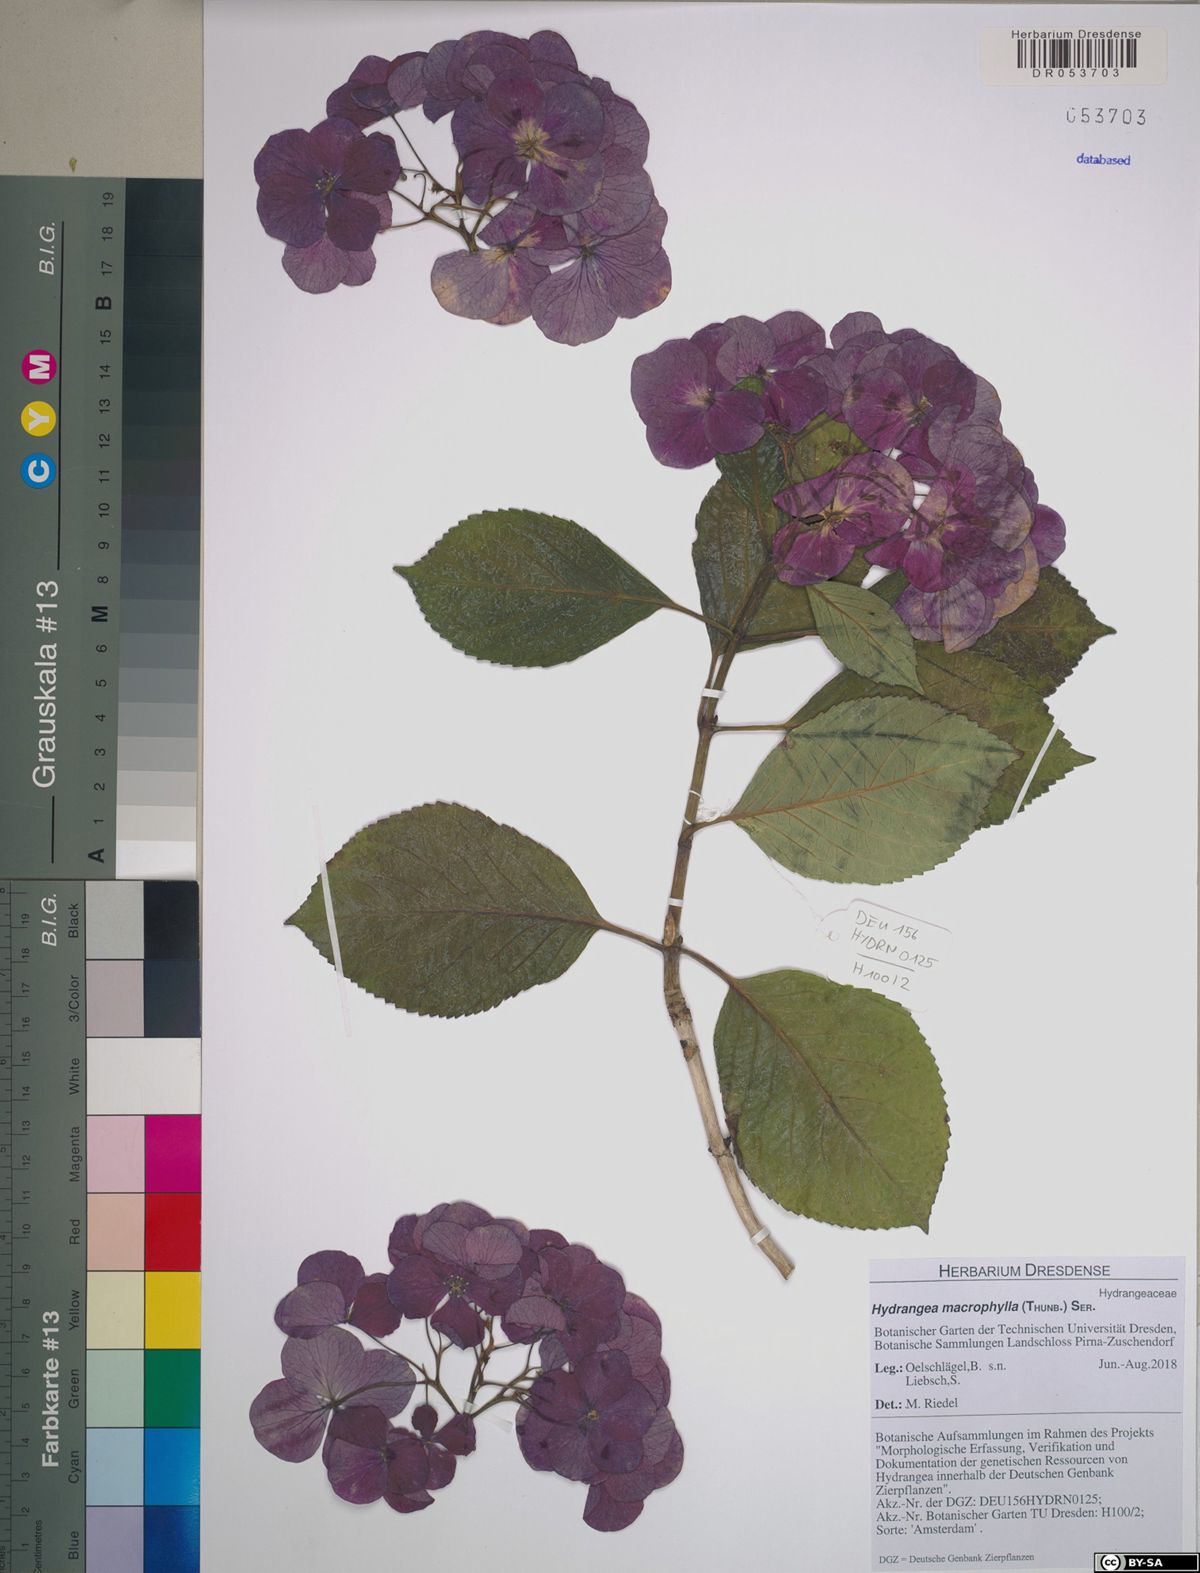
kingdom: Plantae
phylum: Tracheophyta
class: Magnoliopsida
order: Cornales
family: Hydrangeaceae
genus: Hydrangea
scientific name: Hydrangea macrophylla
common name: Hydrangea
